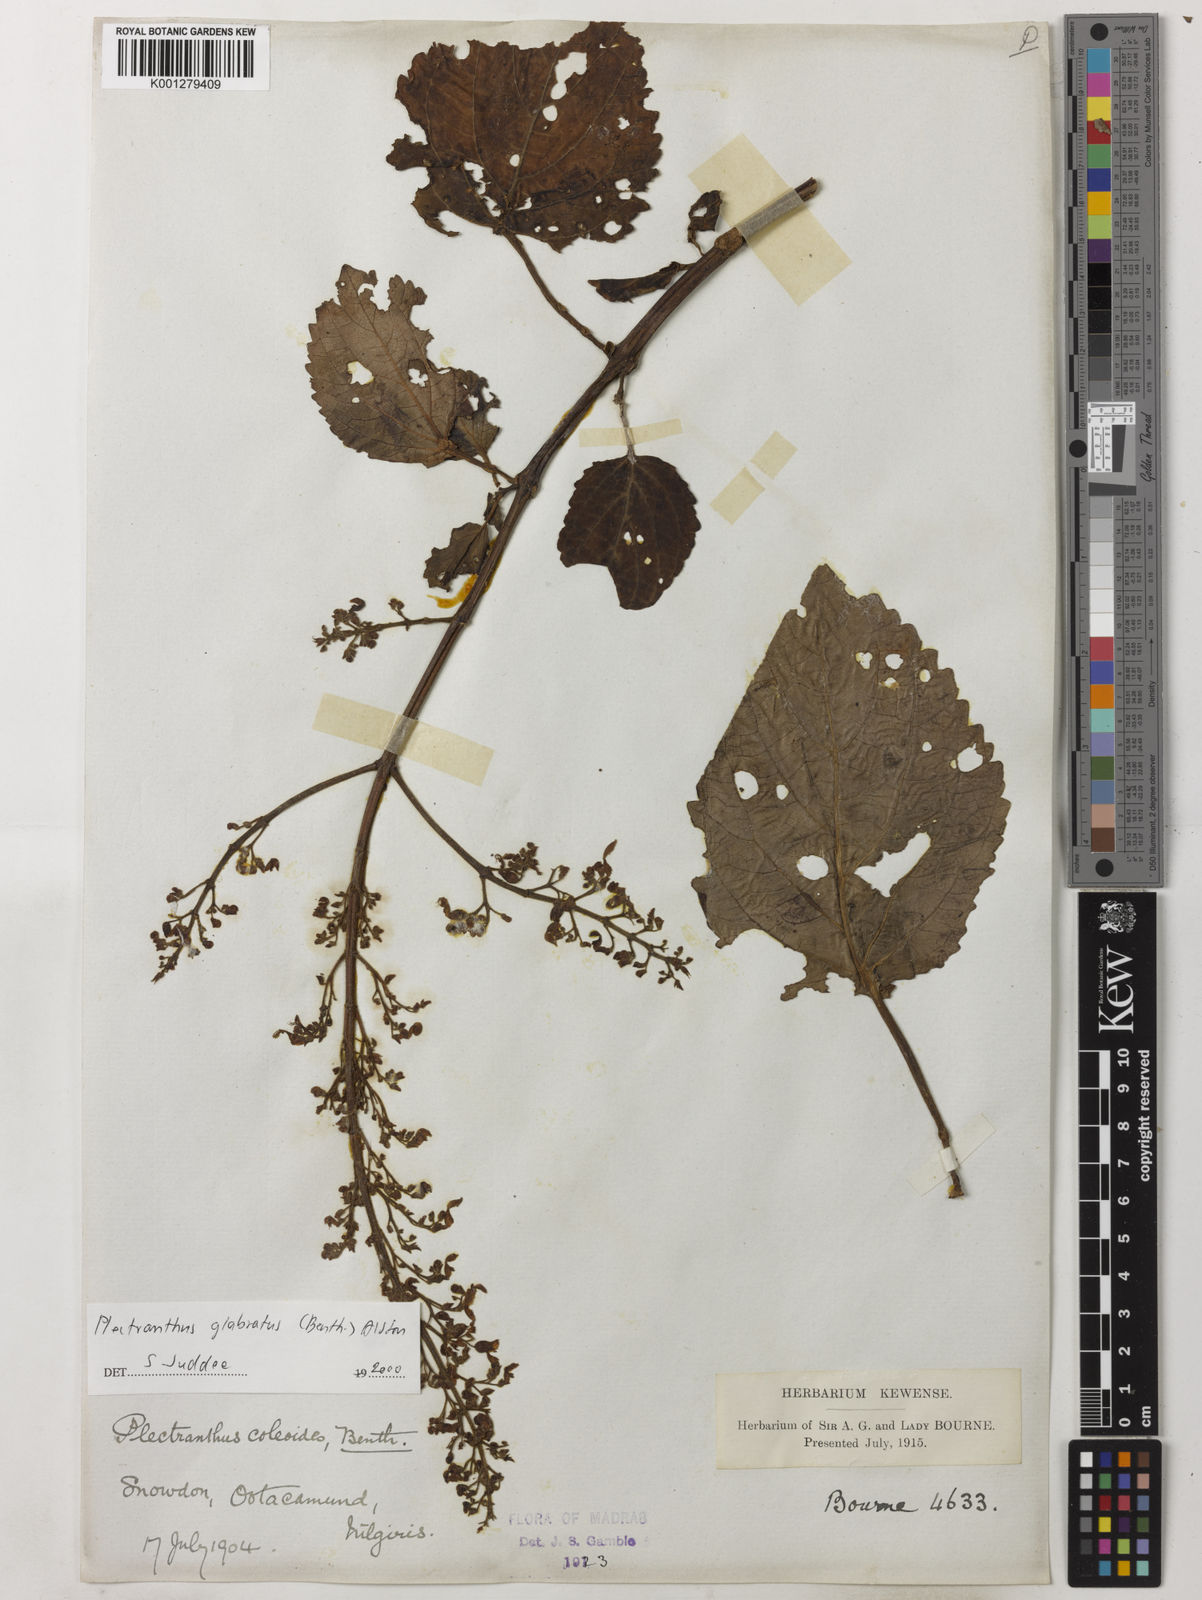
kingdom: Plantae
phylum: Tracheophyta
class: Magnoliopsida
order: Lamiales
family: Lamiaceae
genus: Coleus
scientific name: Coleus paniculatus
